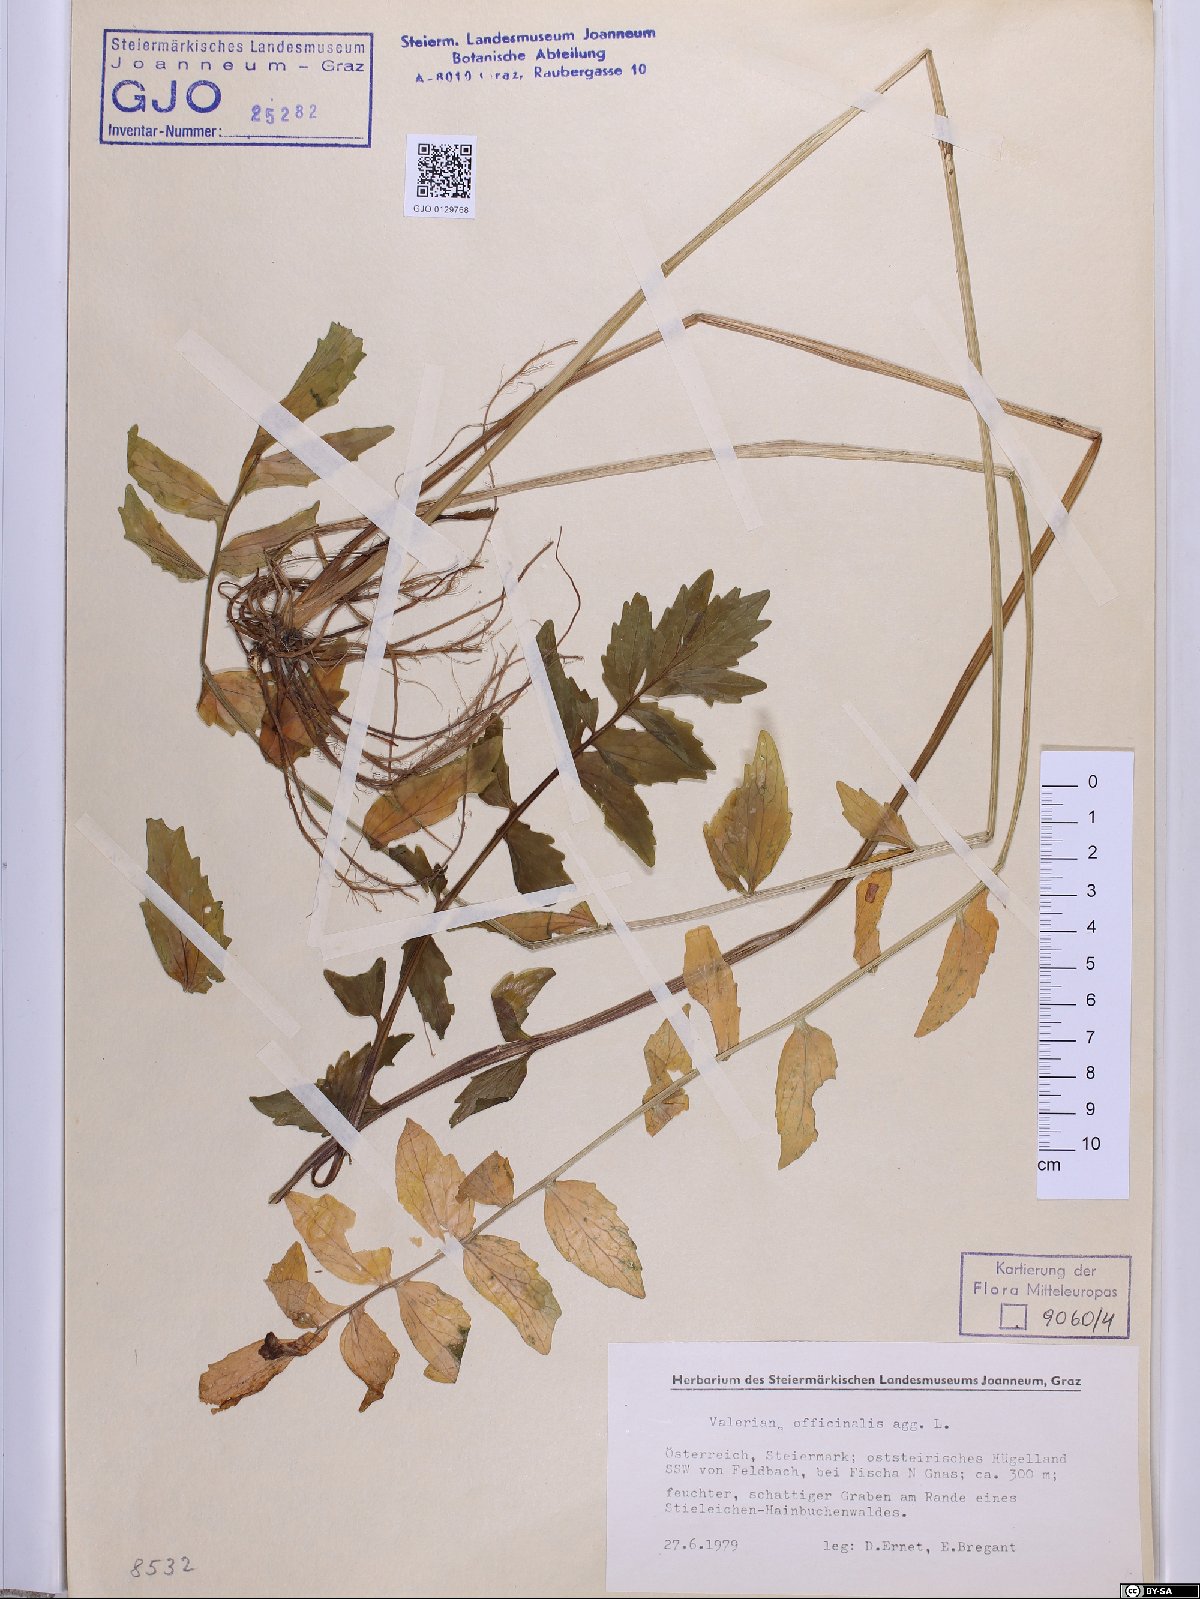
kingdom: Plantae
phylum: Tracheophyta
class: Magnoliopsida
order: Dipsacales
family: Caprifoliaceae
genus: Valeriana
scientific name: Valeriana officinalis
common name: Common valerian
